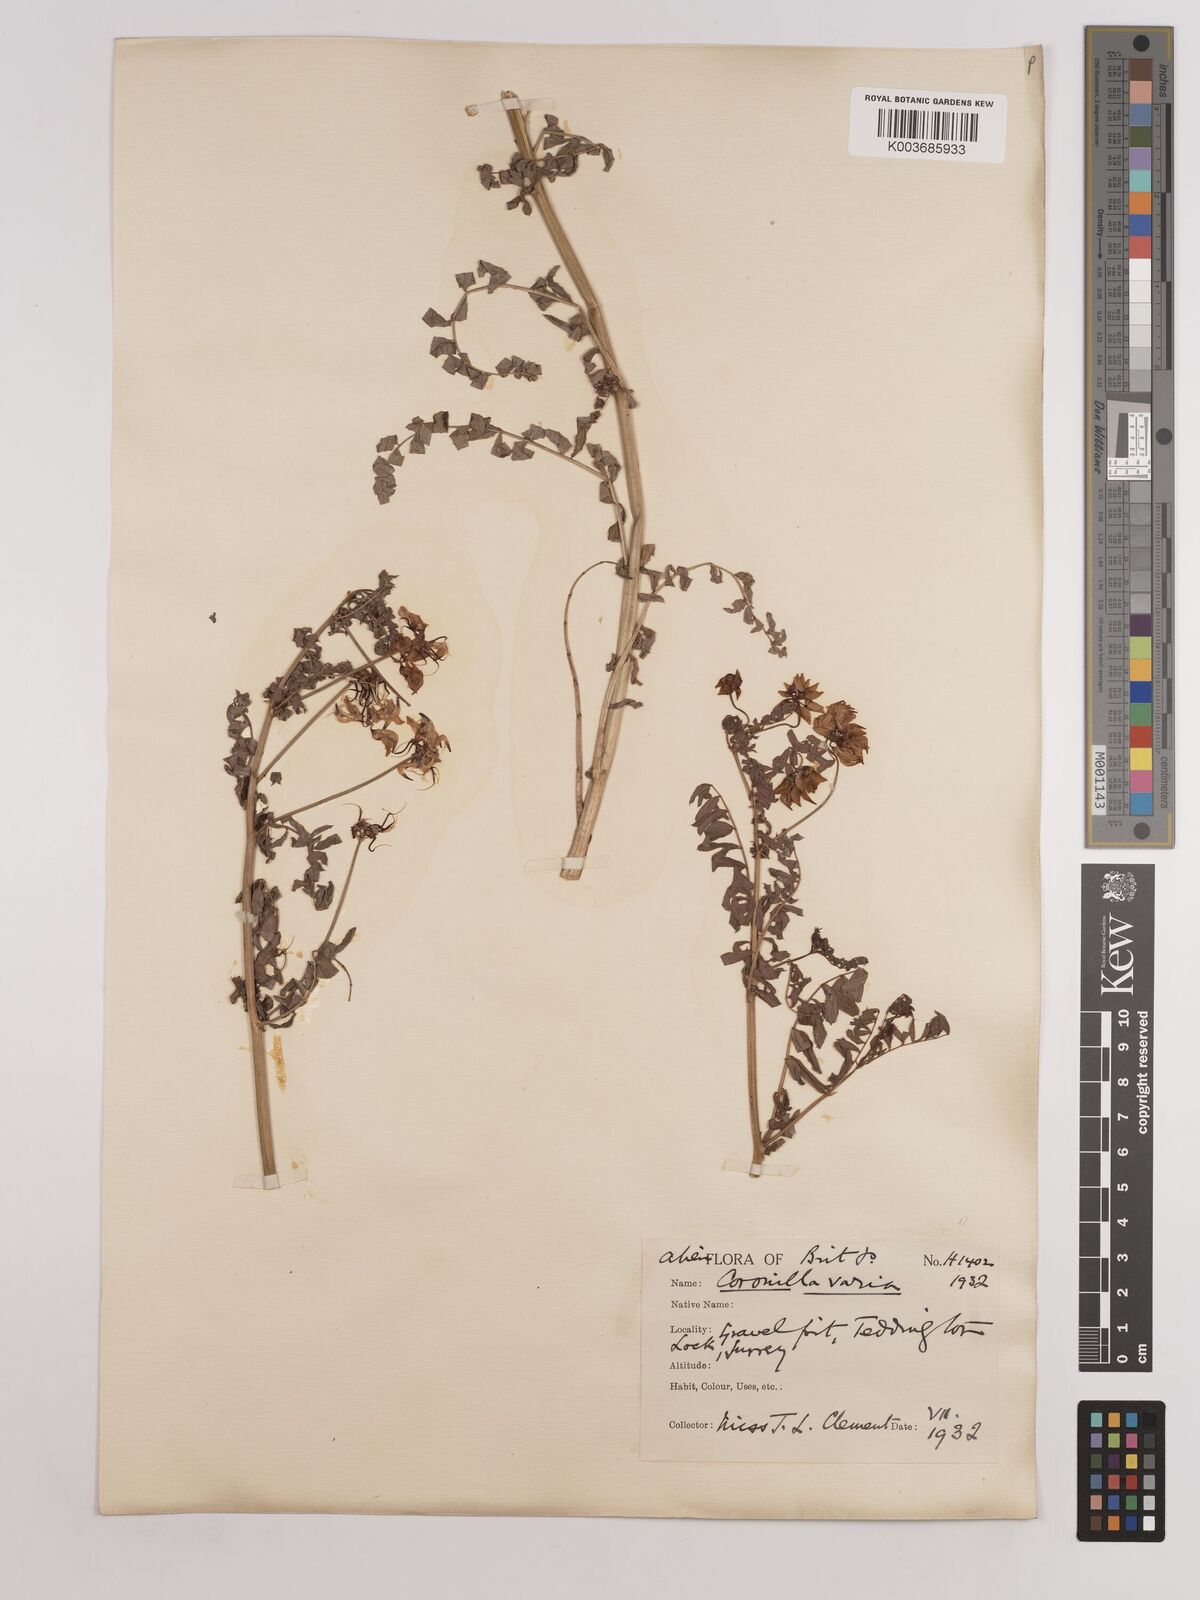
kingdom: Plantae
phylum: Tracheophyta
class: Magnoliopsida
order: Fabales
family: Fabaceae
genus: Coronilla
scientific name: Coronilla varia
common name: Crownvetch
